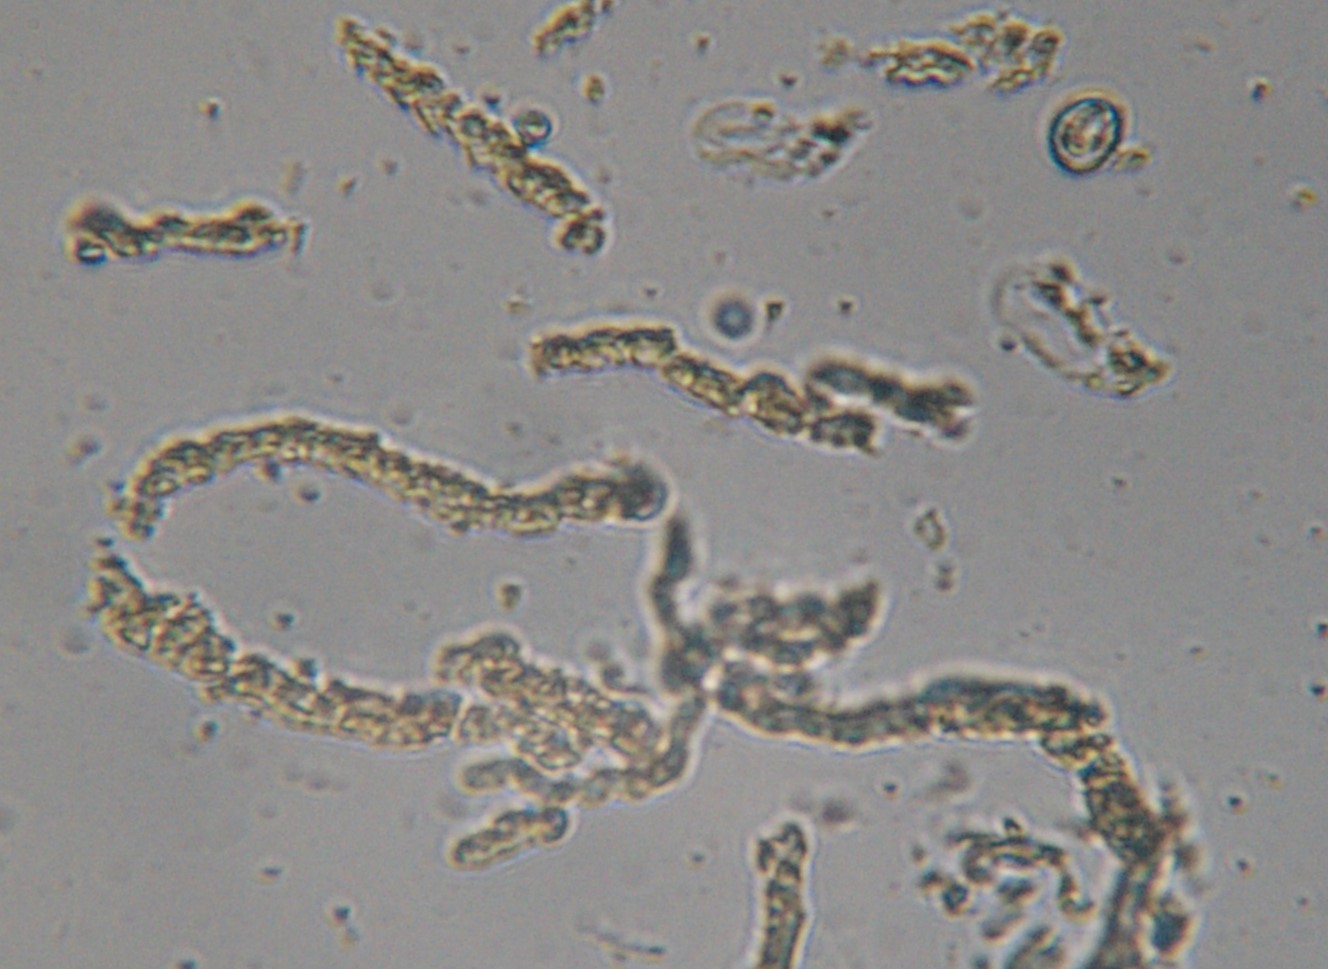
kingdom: Protozoa
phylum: Mycetozoa
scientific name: Mycetozoa
